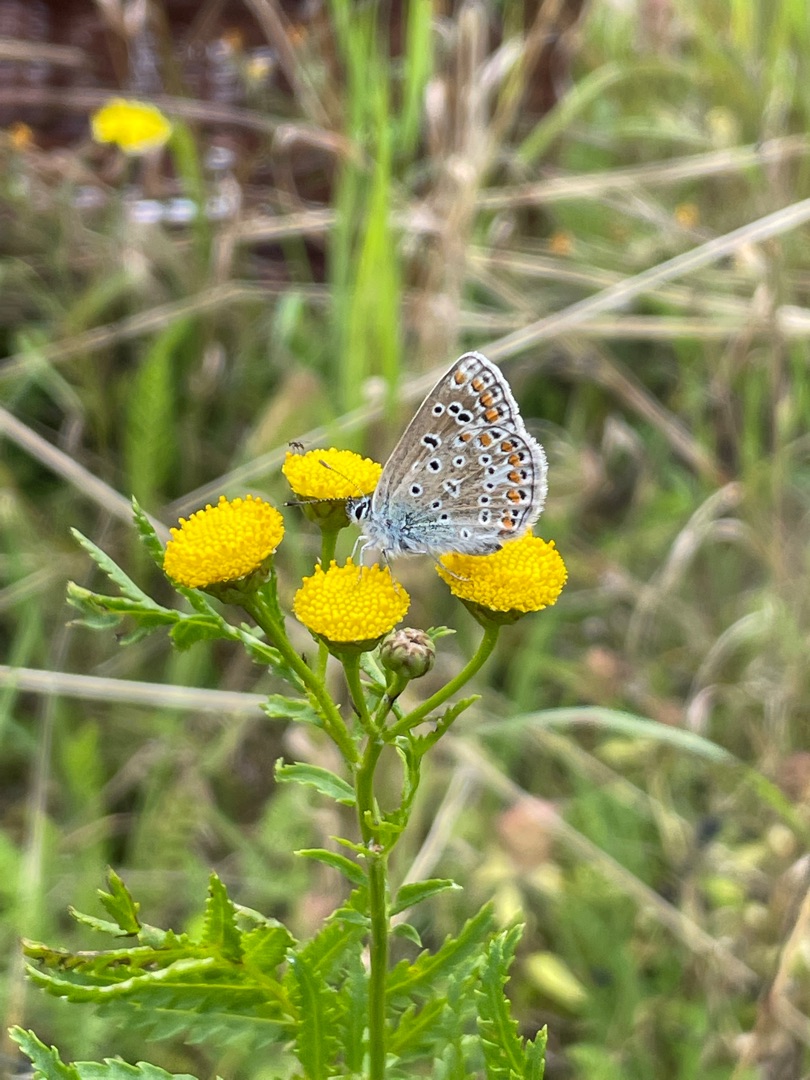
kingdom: Animalia
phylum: Arthropoda
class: Insecta
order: Lepidoptera
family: Lycaenidae
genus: Polyommatus
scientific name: Polyommatus icarus
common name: Almindelig blåfugl
